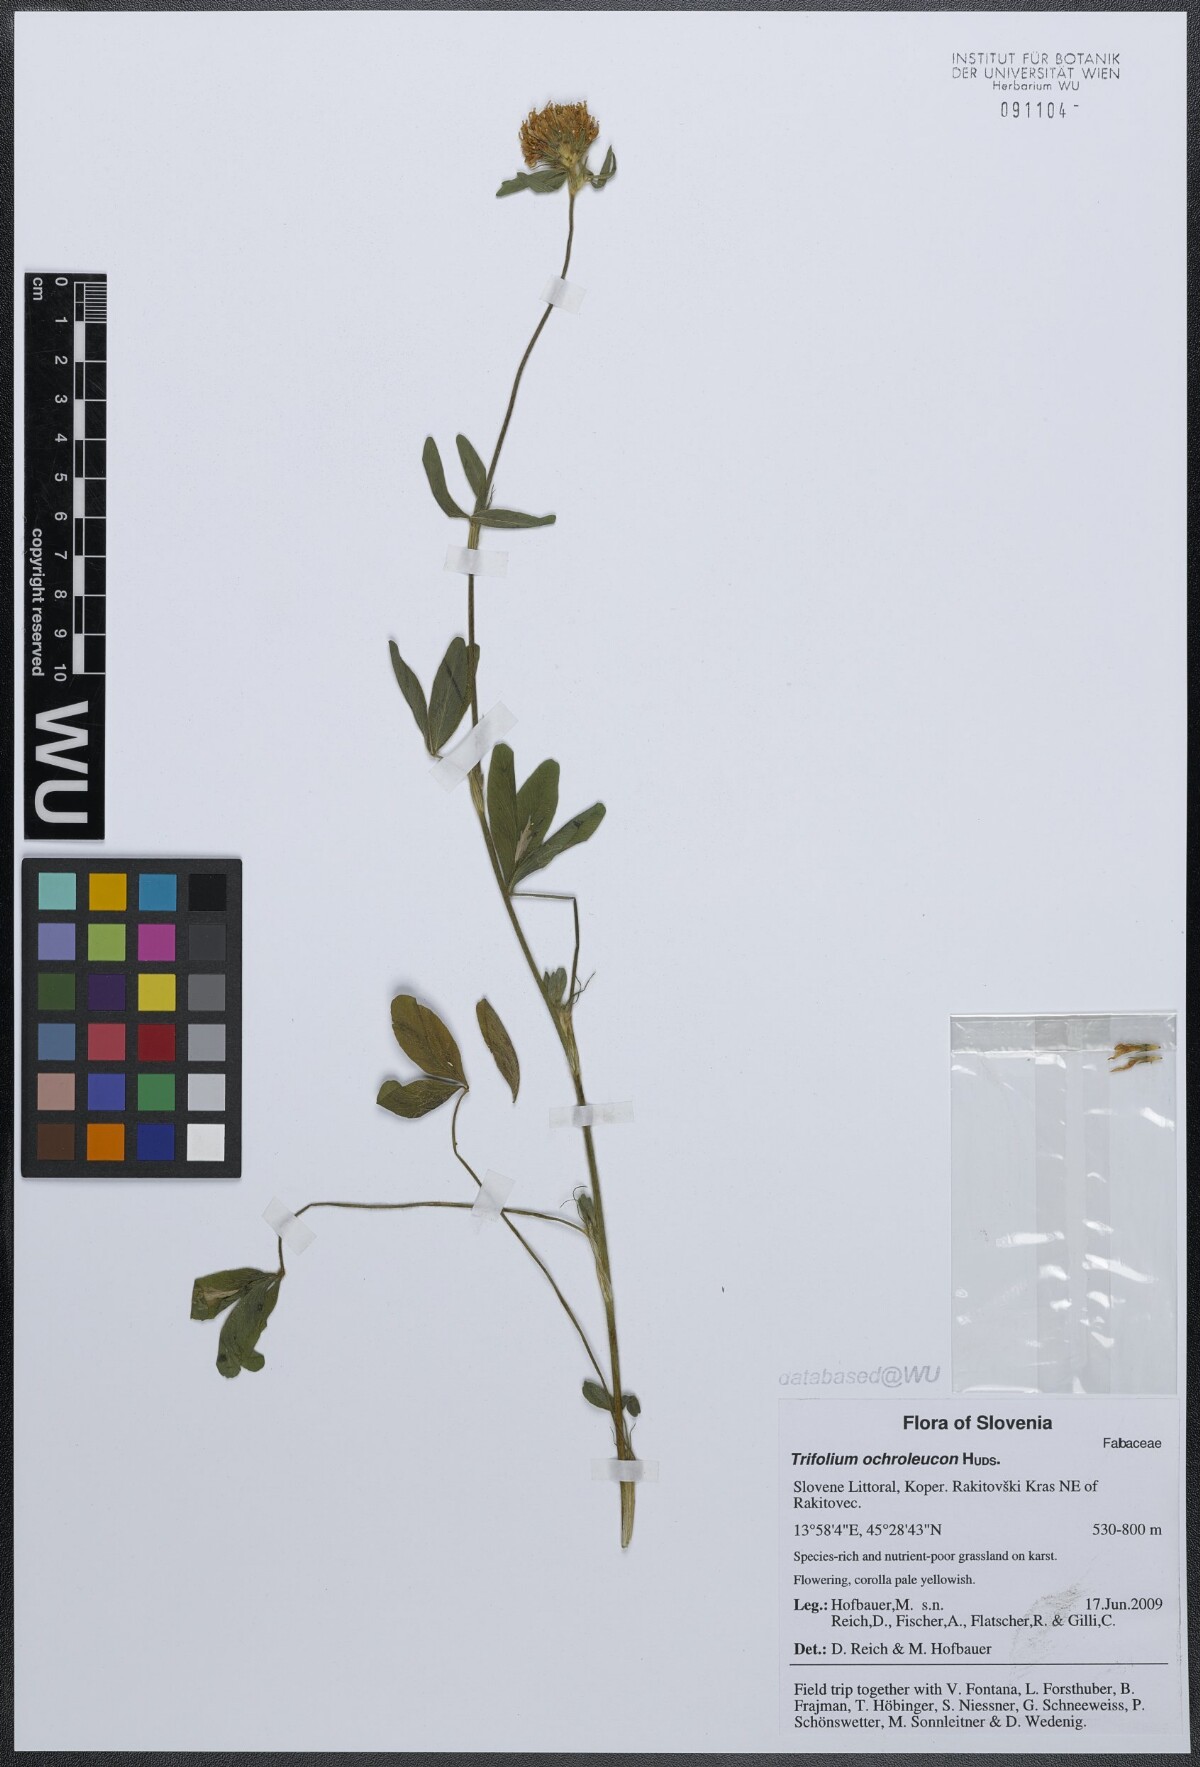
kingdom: Plantae
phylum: Tracheophyta
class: Magnoliopsida
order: Fabales
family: Fabaceae
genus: Trifolium
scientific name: Trifolium ochroleucon
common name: Sulphur clover
